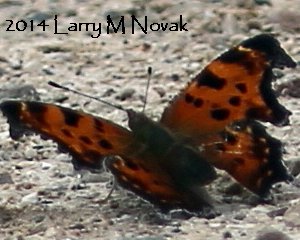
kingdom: Animalia
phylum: Arthropoda
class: Insecta
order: Lepidoptera
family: Nymphalidae
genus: Polygonia
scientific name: Polygonia comma
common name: Eastern Comma
